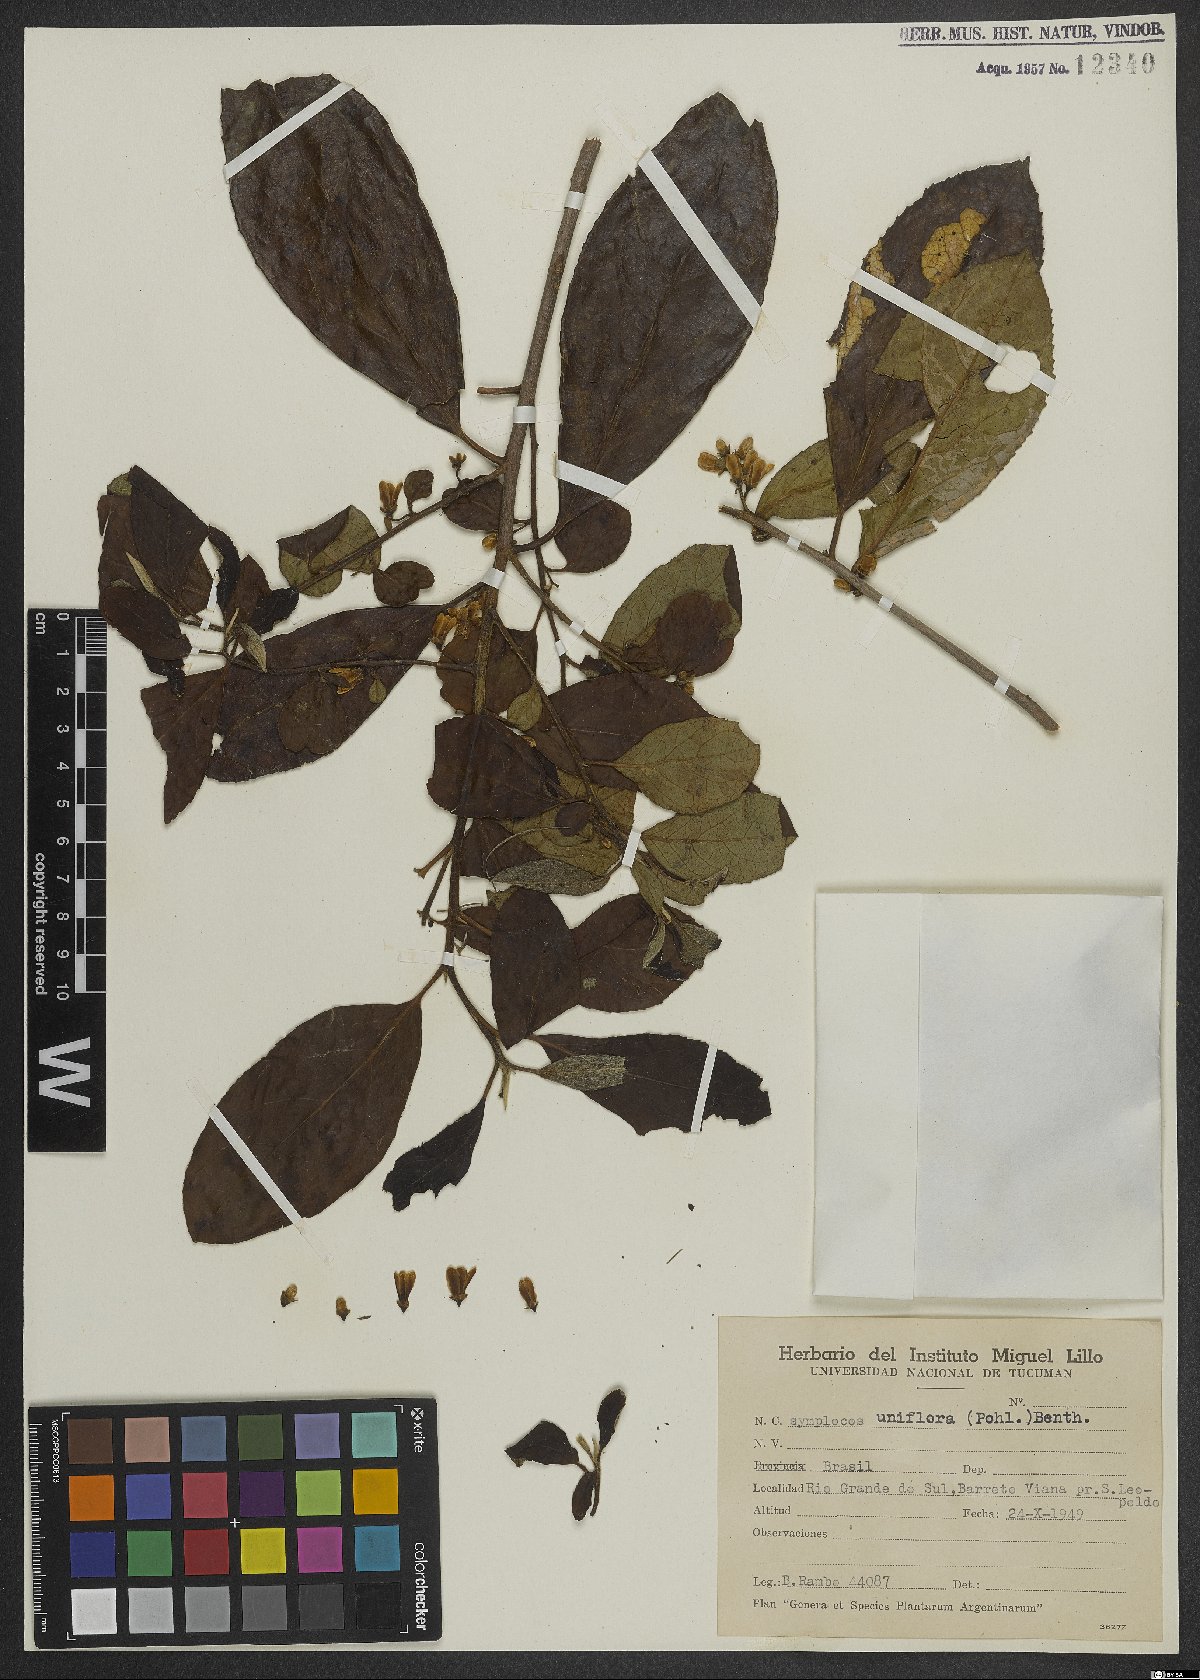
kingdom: Plantae
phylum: Tracheophyta
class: Magnoliopsida
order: Ericales
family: Symplocaceae
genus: Symplocos
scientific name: Symplocos uniflora
